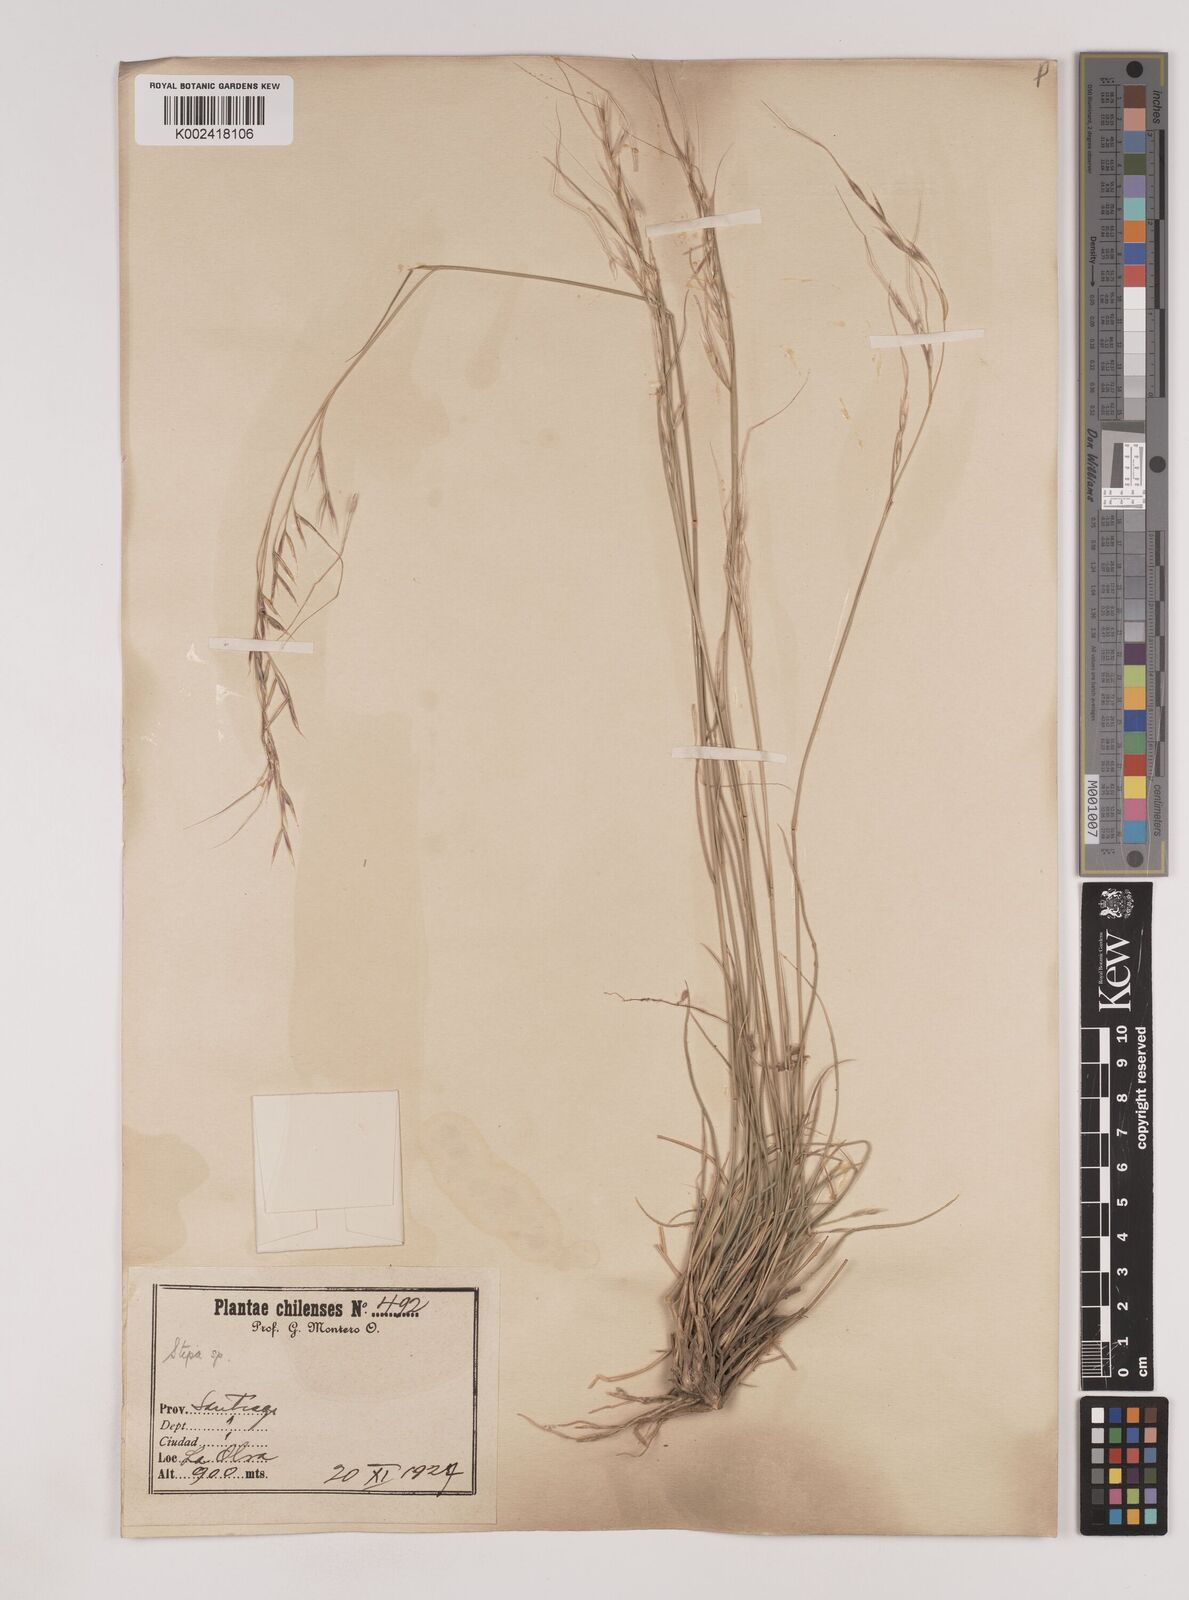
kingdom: Plantae
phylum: Tracheophyta
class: Liliopsida
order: Poales
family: Poaceae
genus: Nassella
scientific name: Nassella
